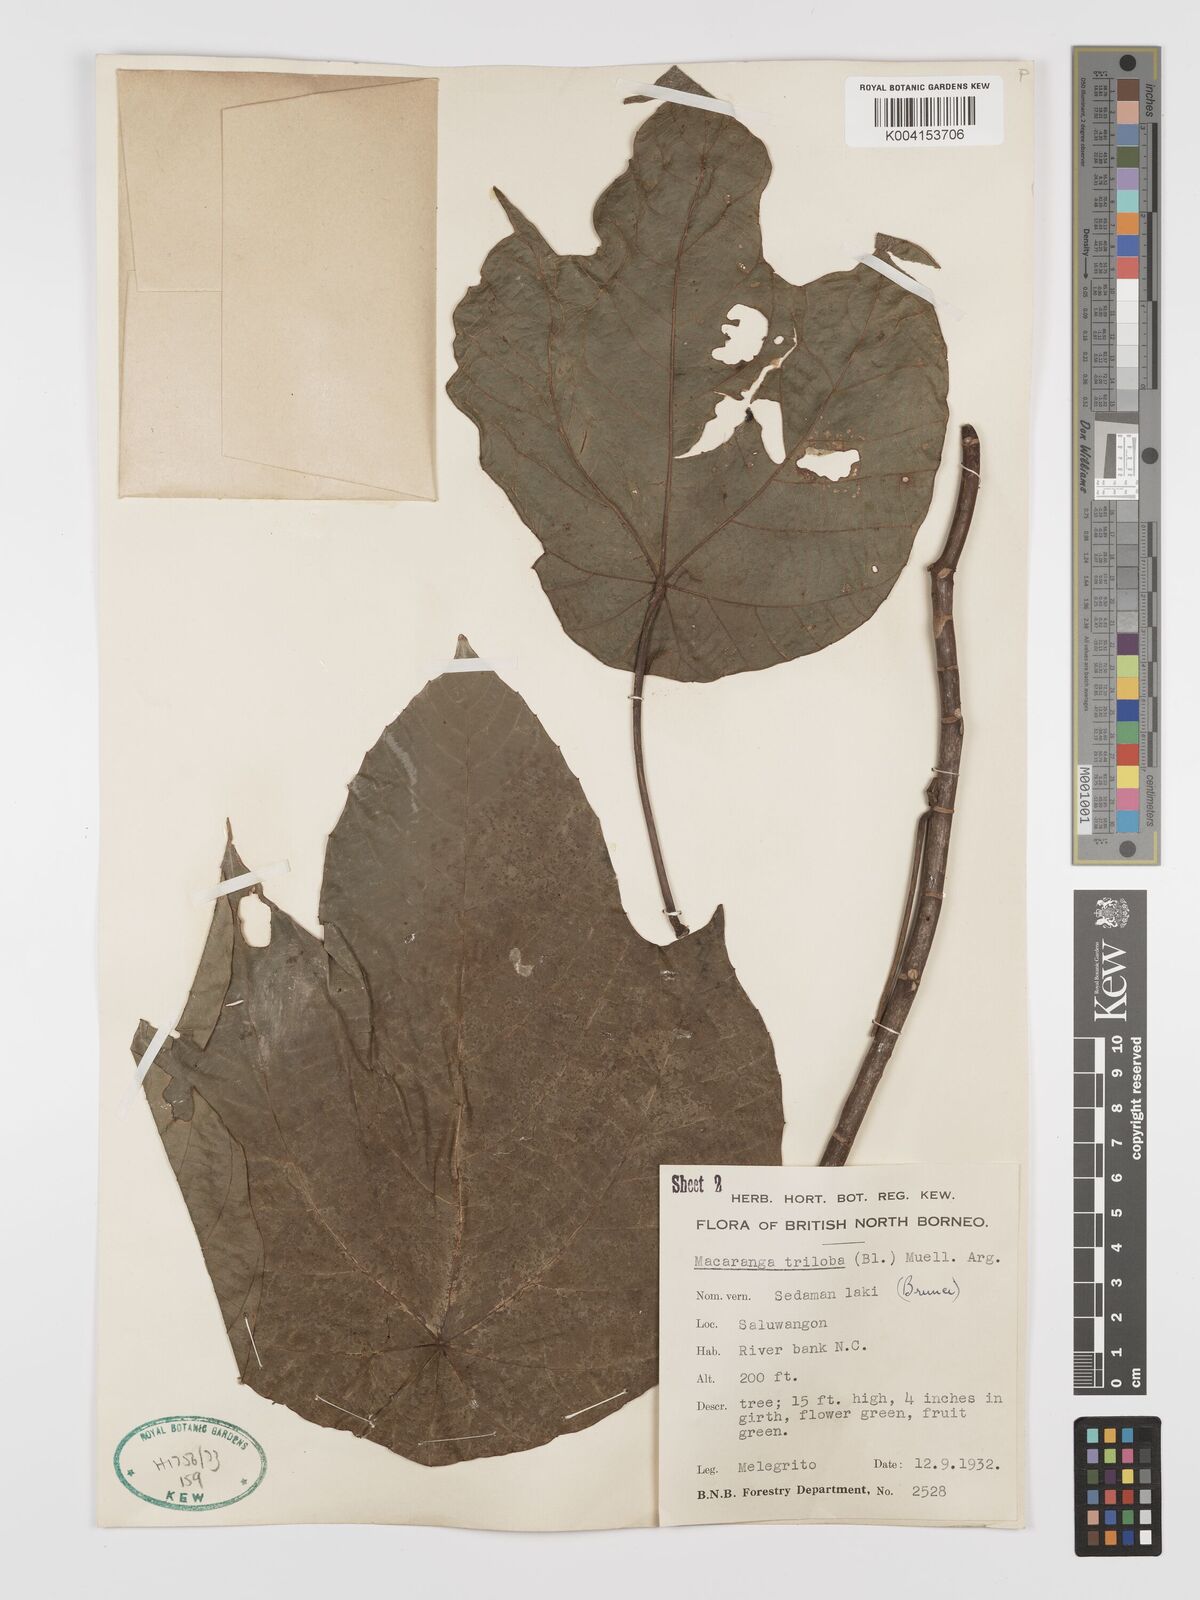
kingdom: Plantae
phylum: Tracheophyta
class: Magnoliopsida
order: Malpighiales
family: Euphorbiaceae
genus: Macaranga
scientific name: Macaranga triloba
